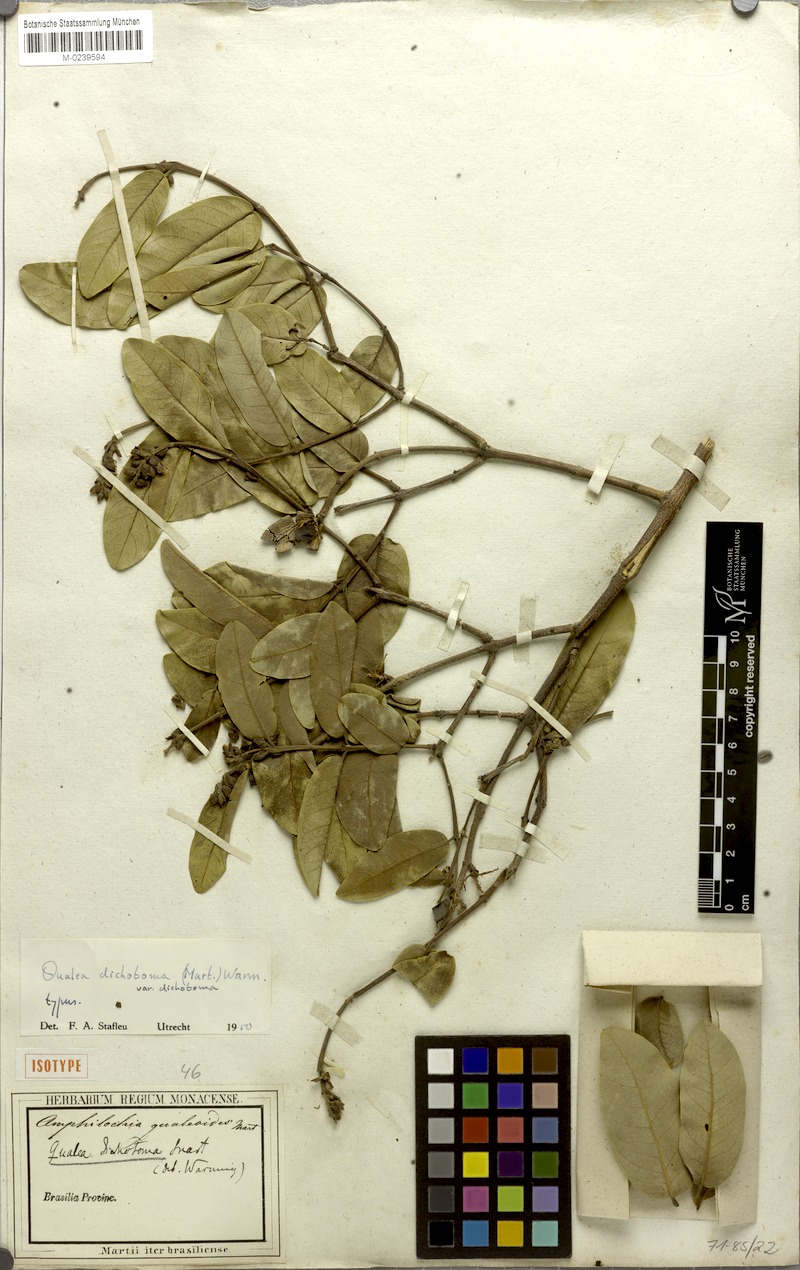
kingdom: Plantae
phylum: Tracheophyta
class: Magnoliopsida
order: Myrtales
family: Vochysiaceae
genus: Qualea
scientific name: Qualea cordata
